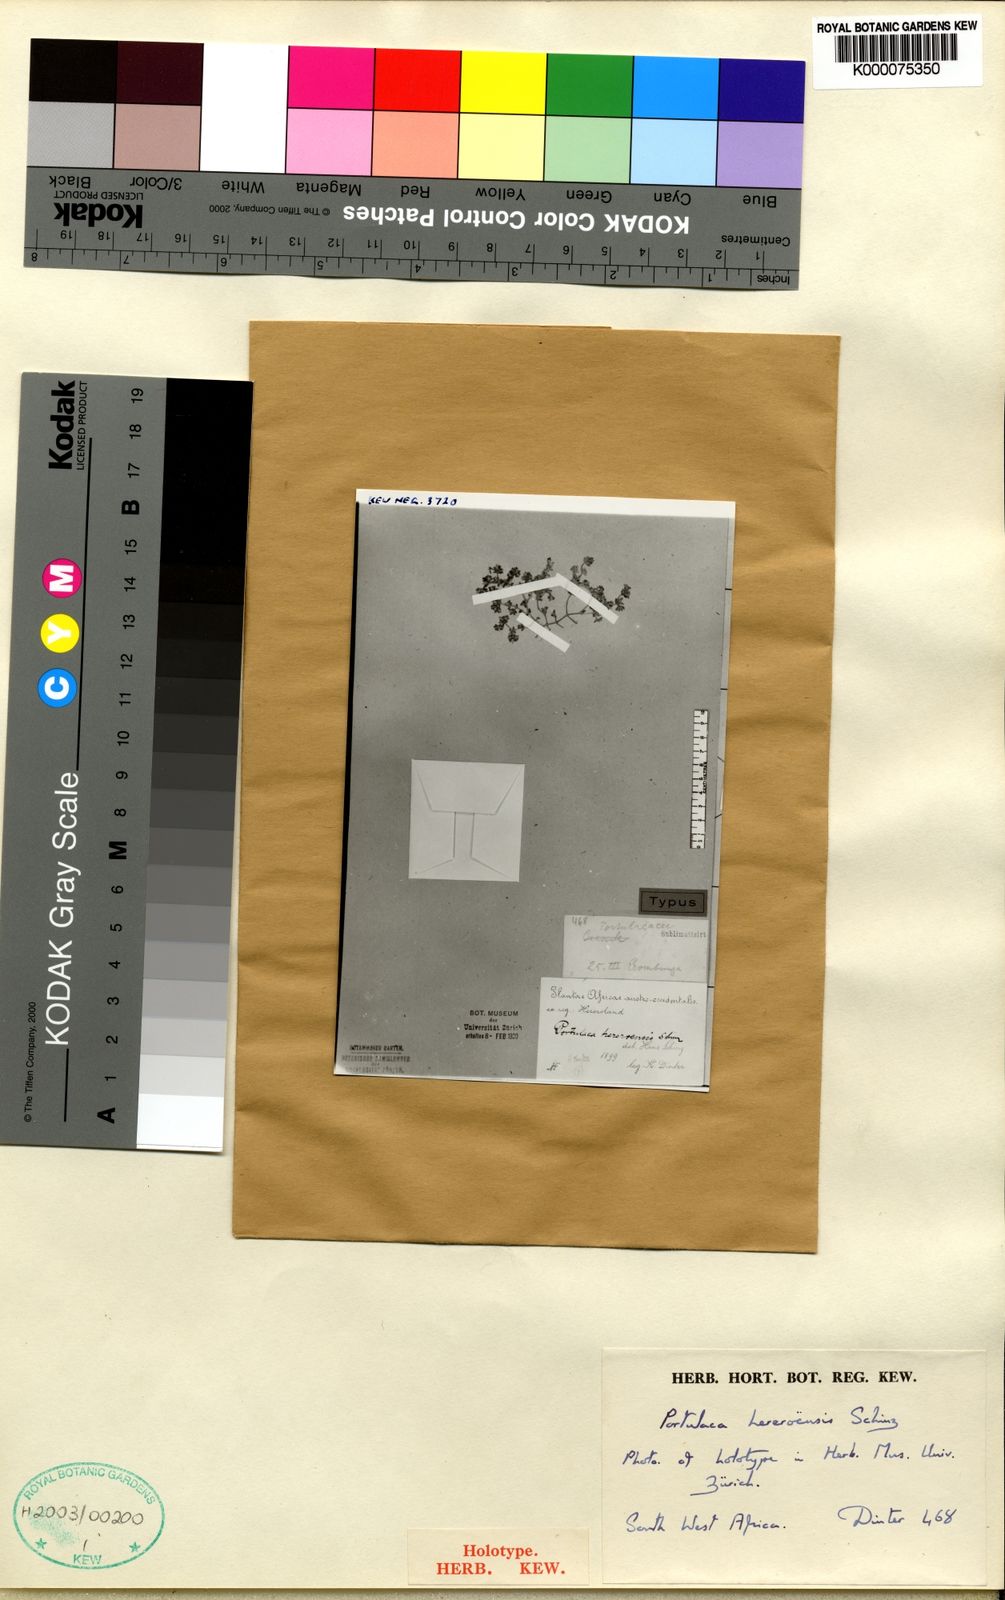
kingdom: Plantae
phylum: Tracheophyta
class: Magnoliopsida
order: Caryophyllales
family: Portulacaceae
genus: Portulaca
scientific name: Portulaca hereroensis
